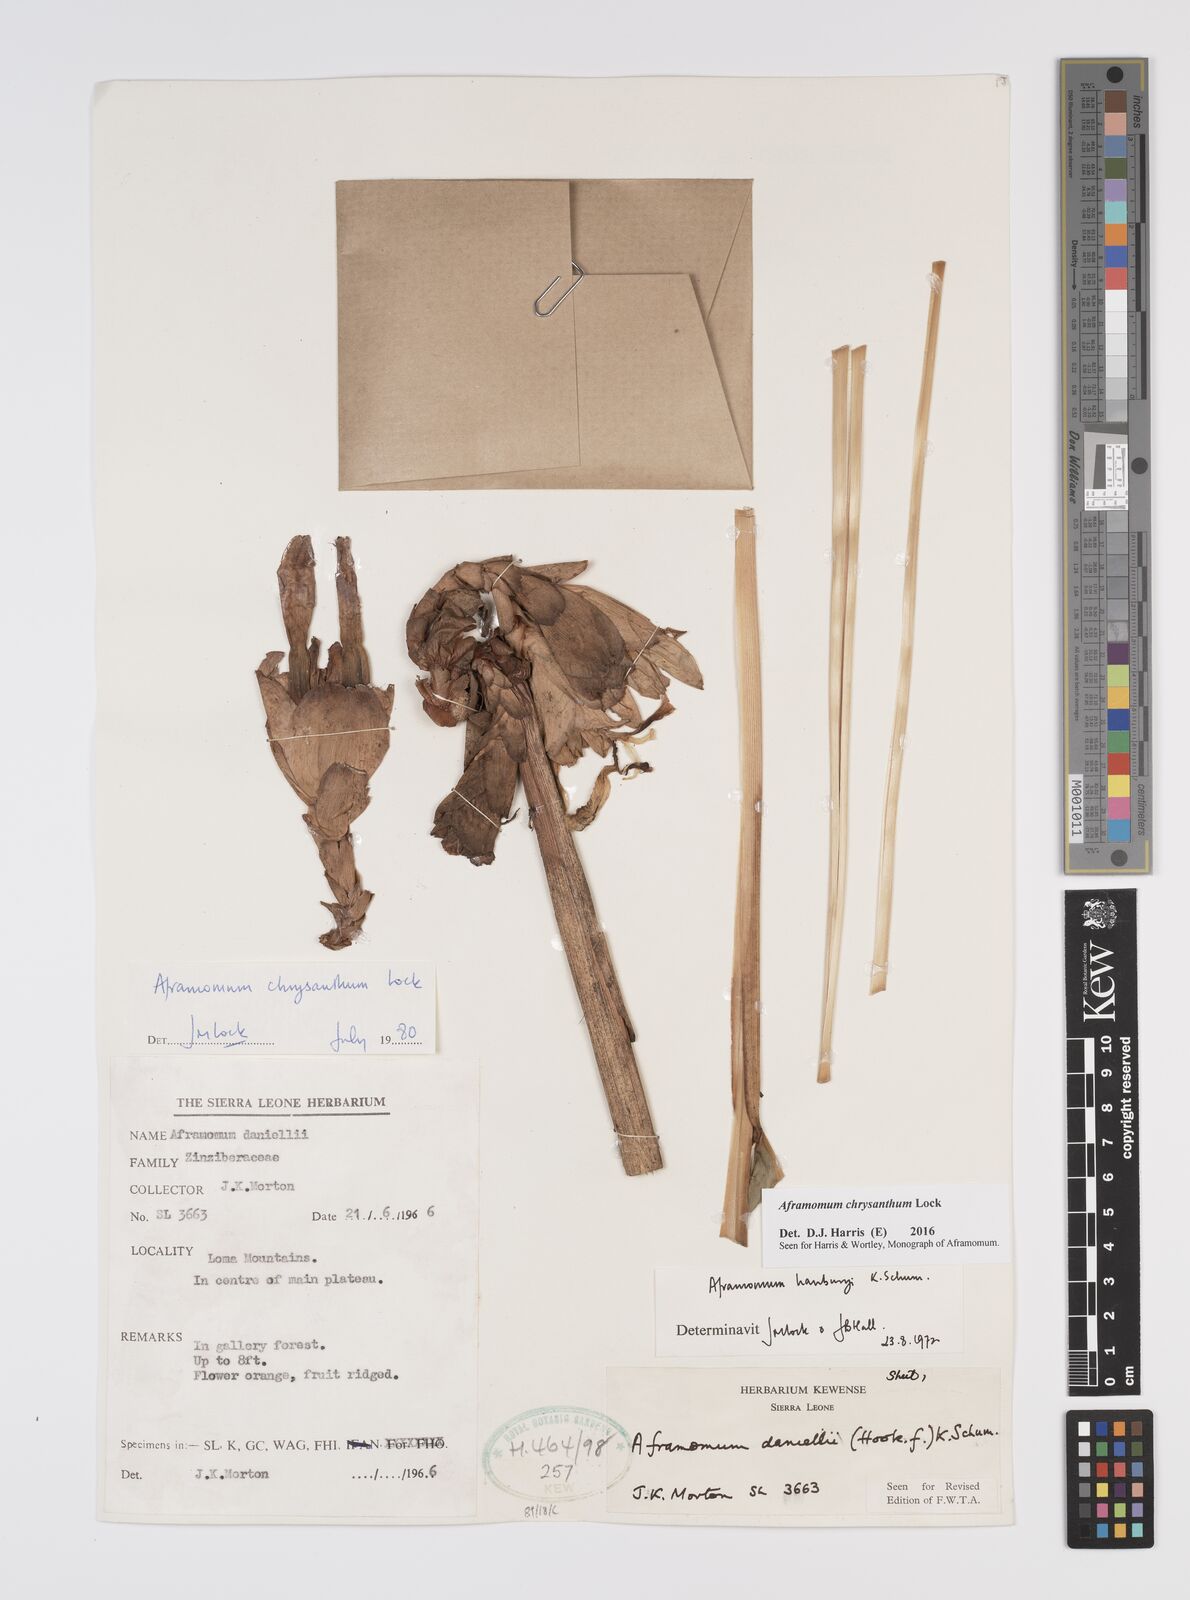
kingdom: Plantae
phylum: Tracheophyta
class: Liliopsida
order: Zingiberales
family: Zingiberaceae
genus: Aframomum
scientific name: Aframomum chrysanthum
